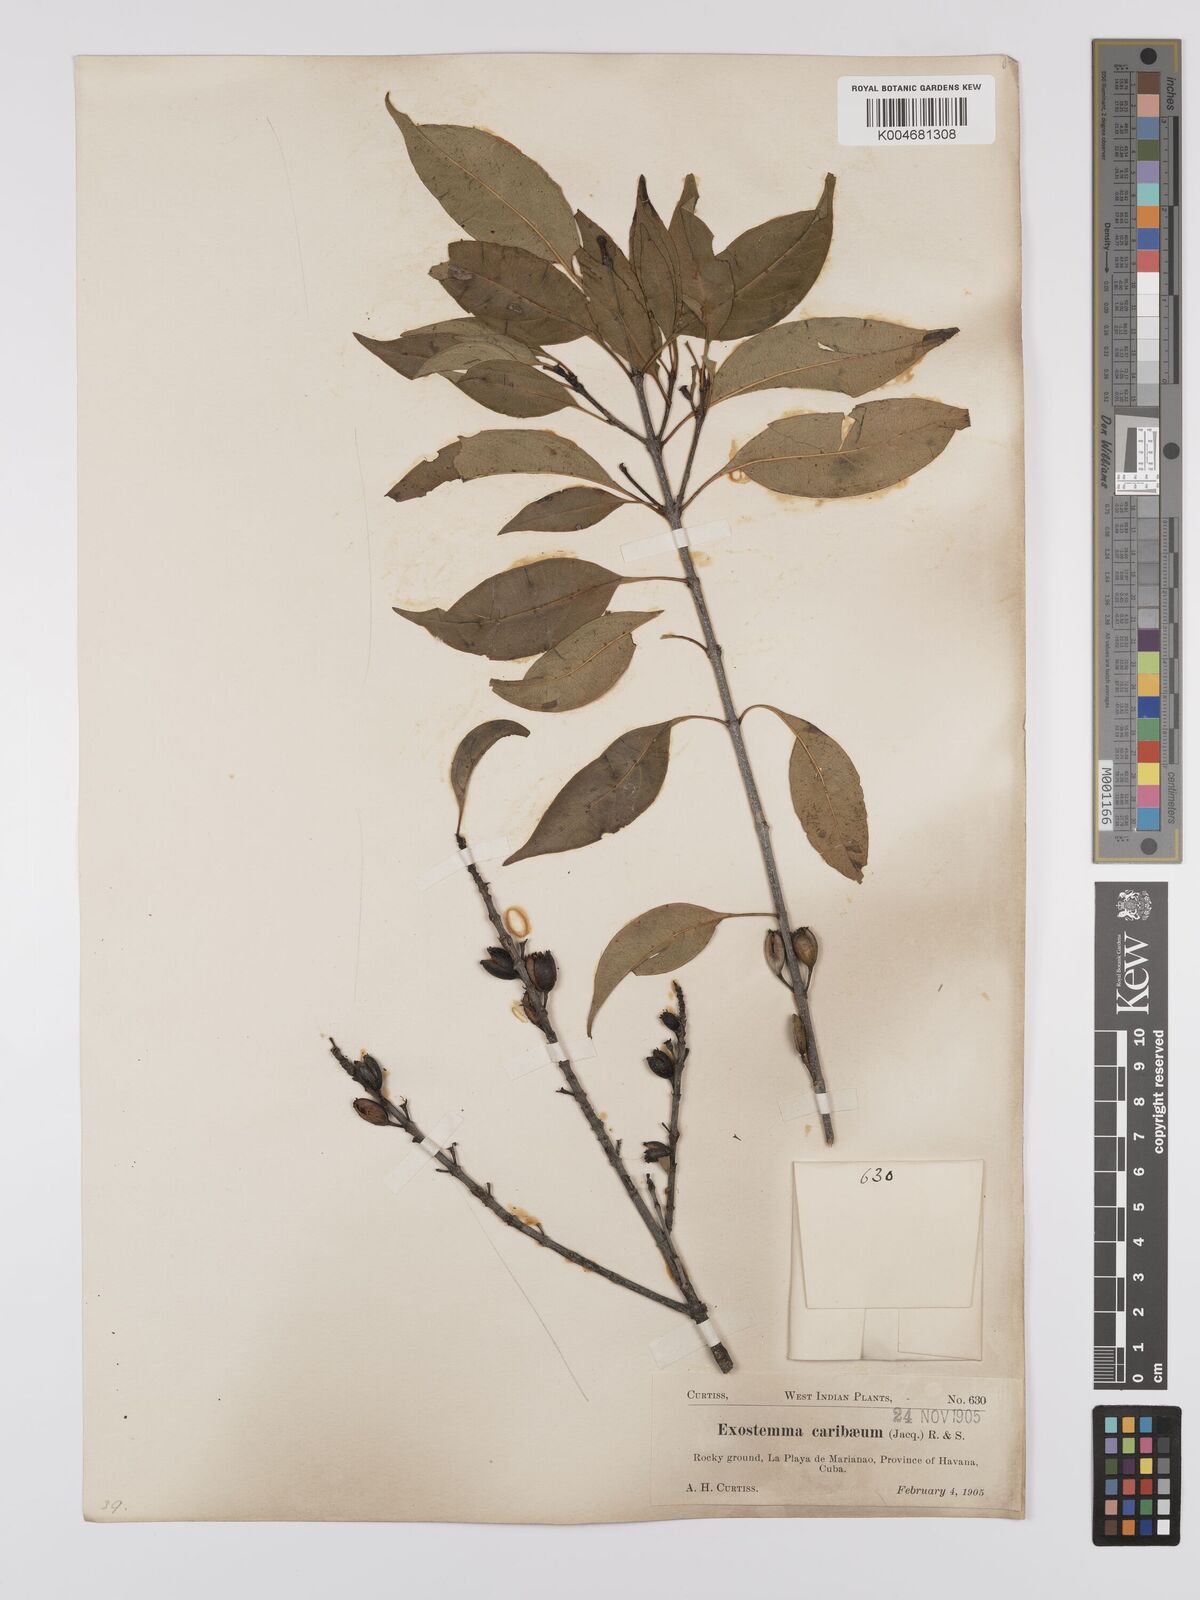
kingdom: Plantae
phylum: Tracheophyta
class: Magnoliopsida
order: Gentianales
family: Rubiaceae
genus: Exostema
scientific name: Exostema caribaeum
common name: Princewood
